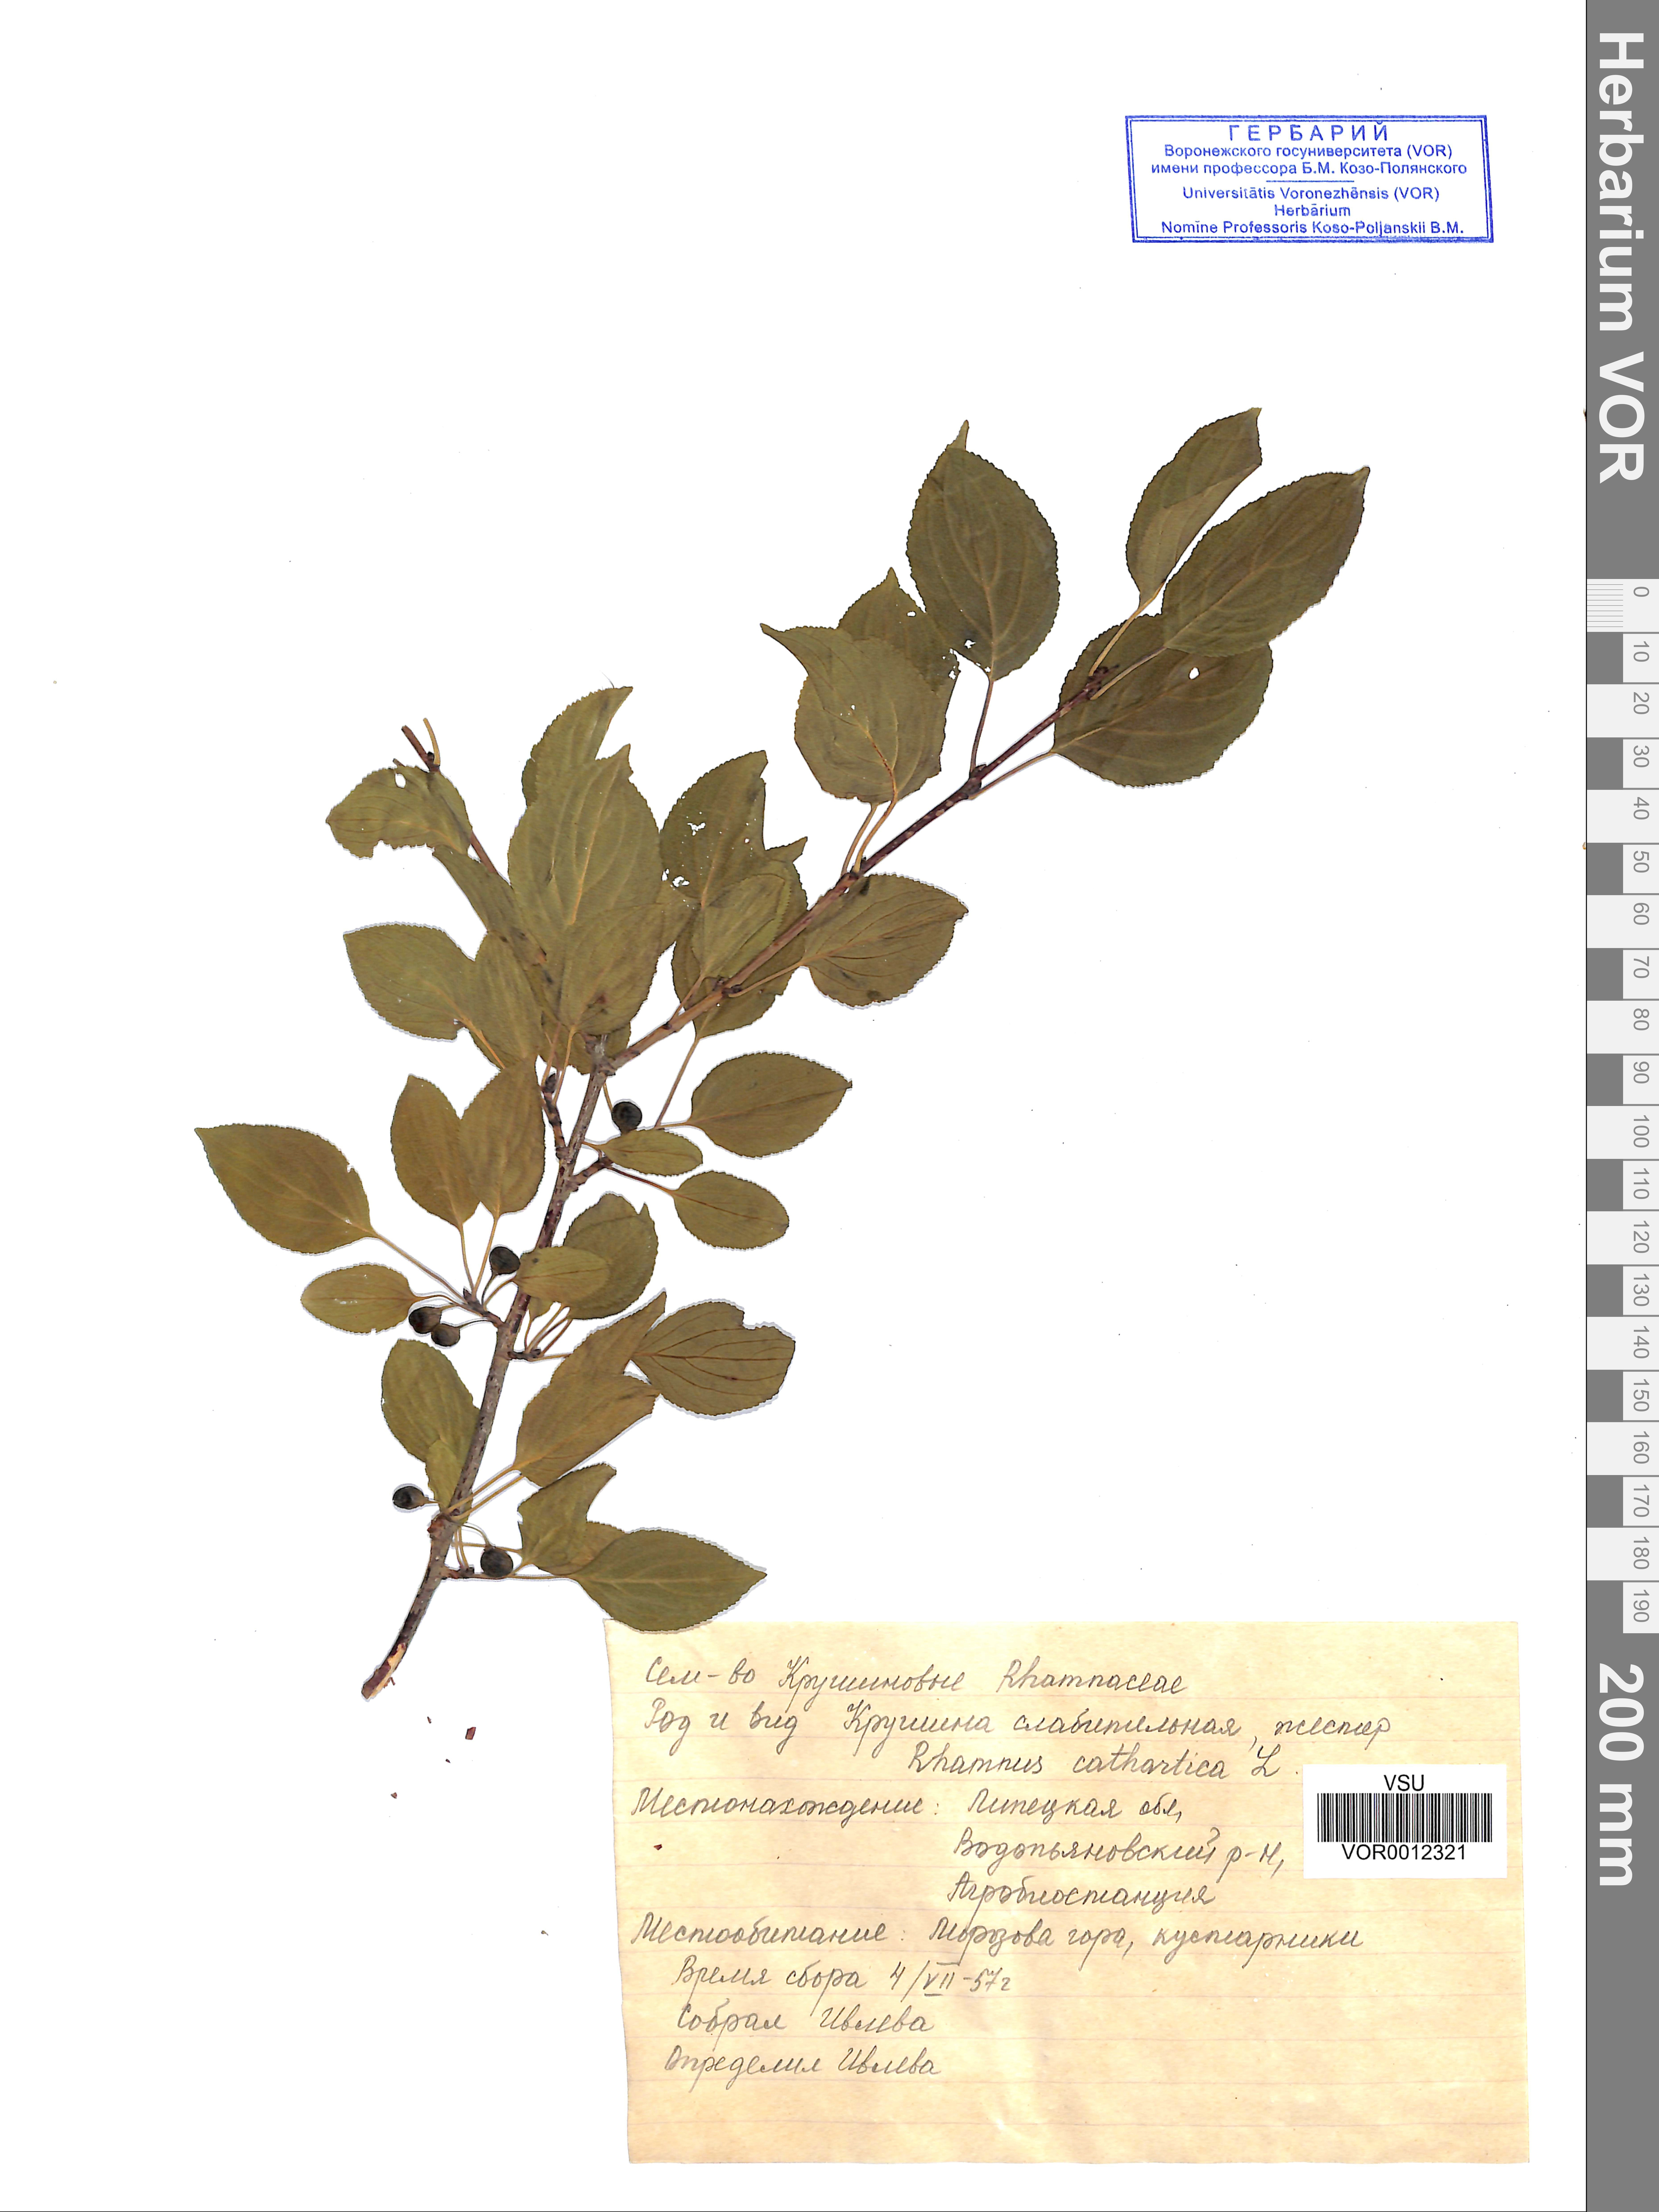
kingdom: Plantae
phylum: Tracheophyta
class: Magnoliopsida
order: Rosales
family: Rhamnaceae
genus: Rhamnus
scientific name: Rhamnus cathartica
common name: Common buckthorn
